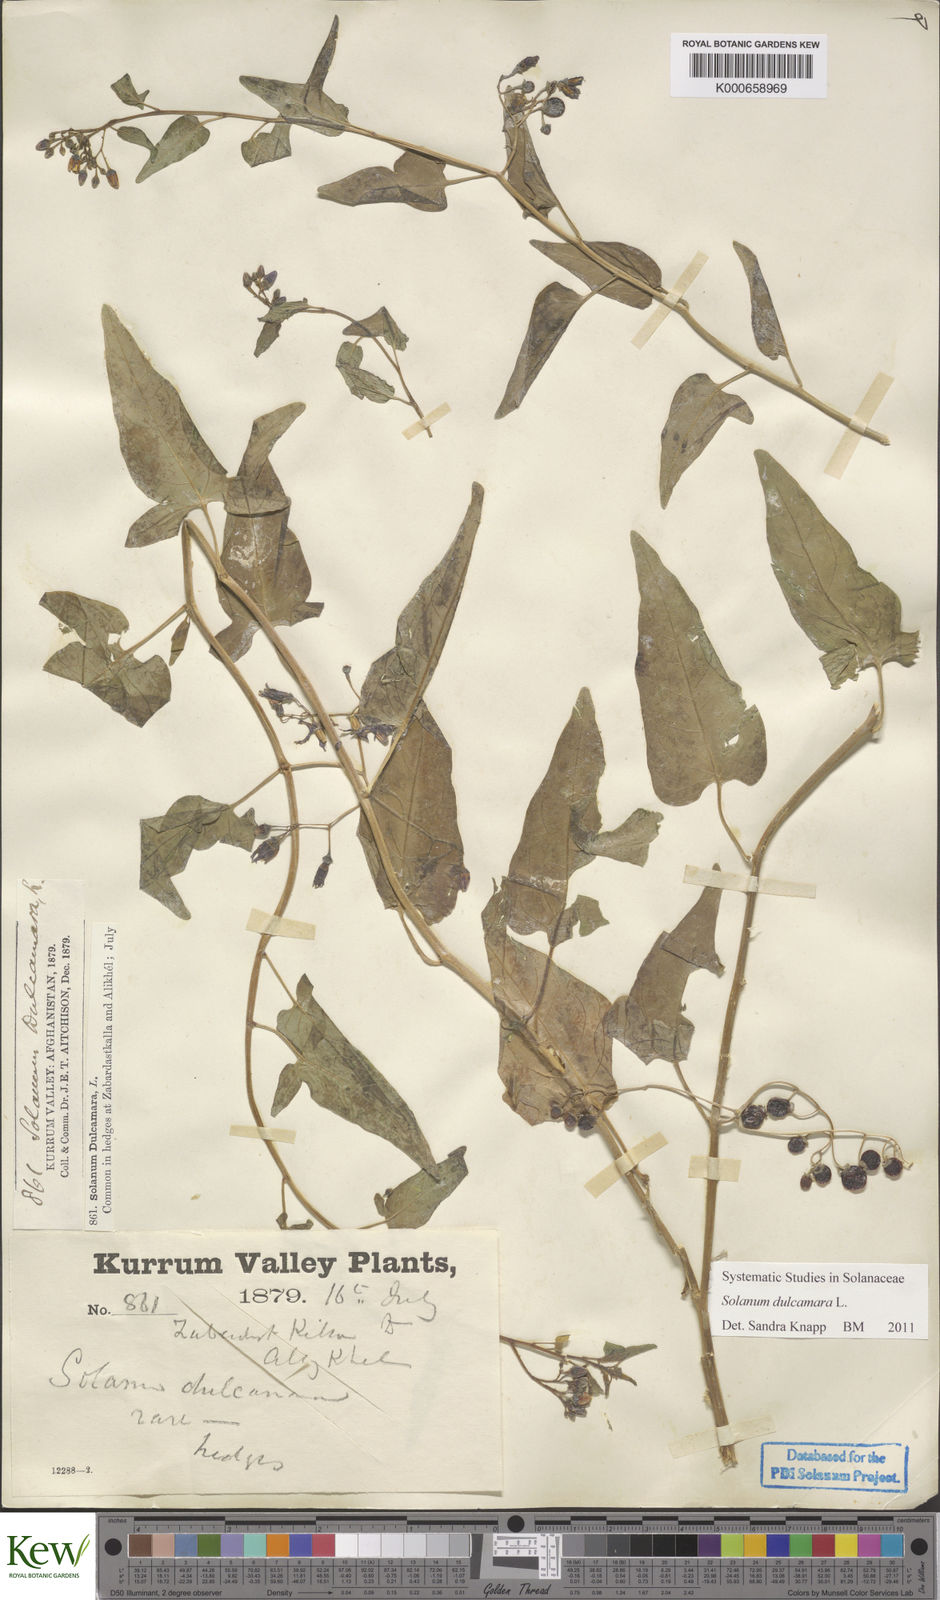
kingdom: Plantae
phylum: Tracheophyta
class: Magnoliopsida
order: Solanales
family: Solanaceae
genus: Solanum
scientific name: Solanum dulcamara
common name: Climbing nightshade
